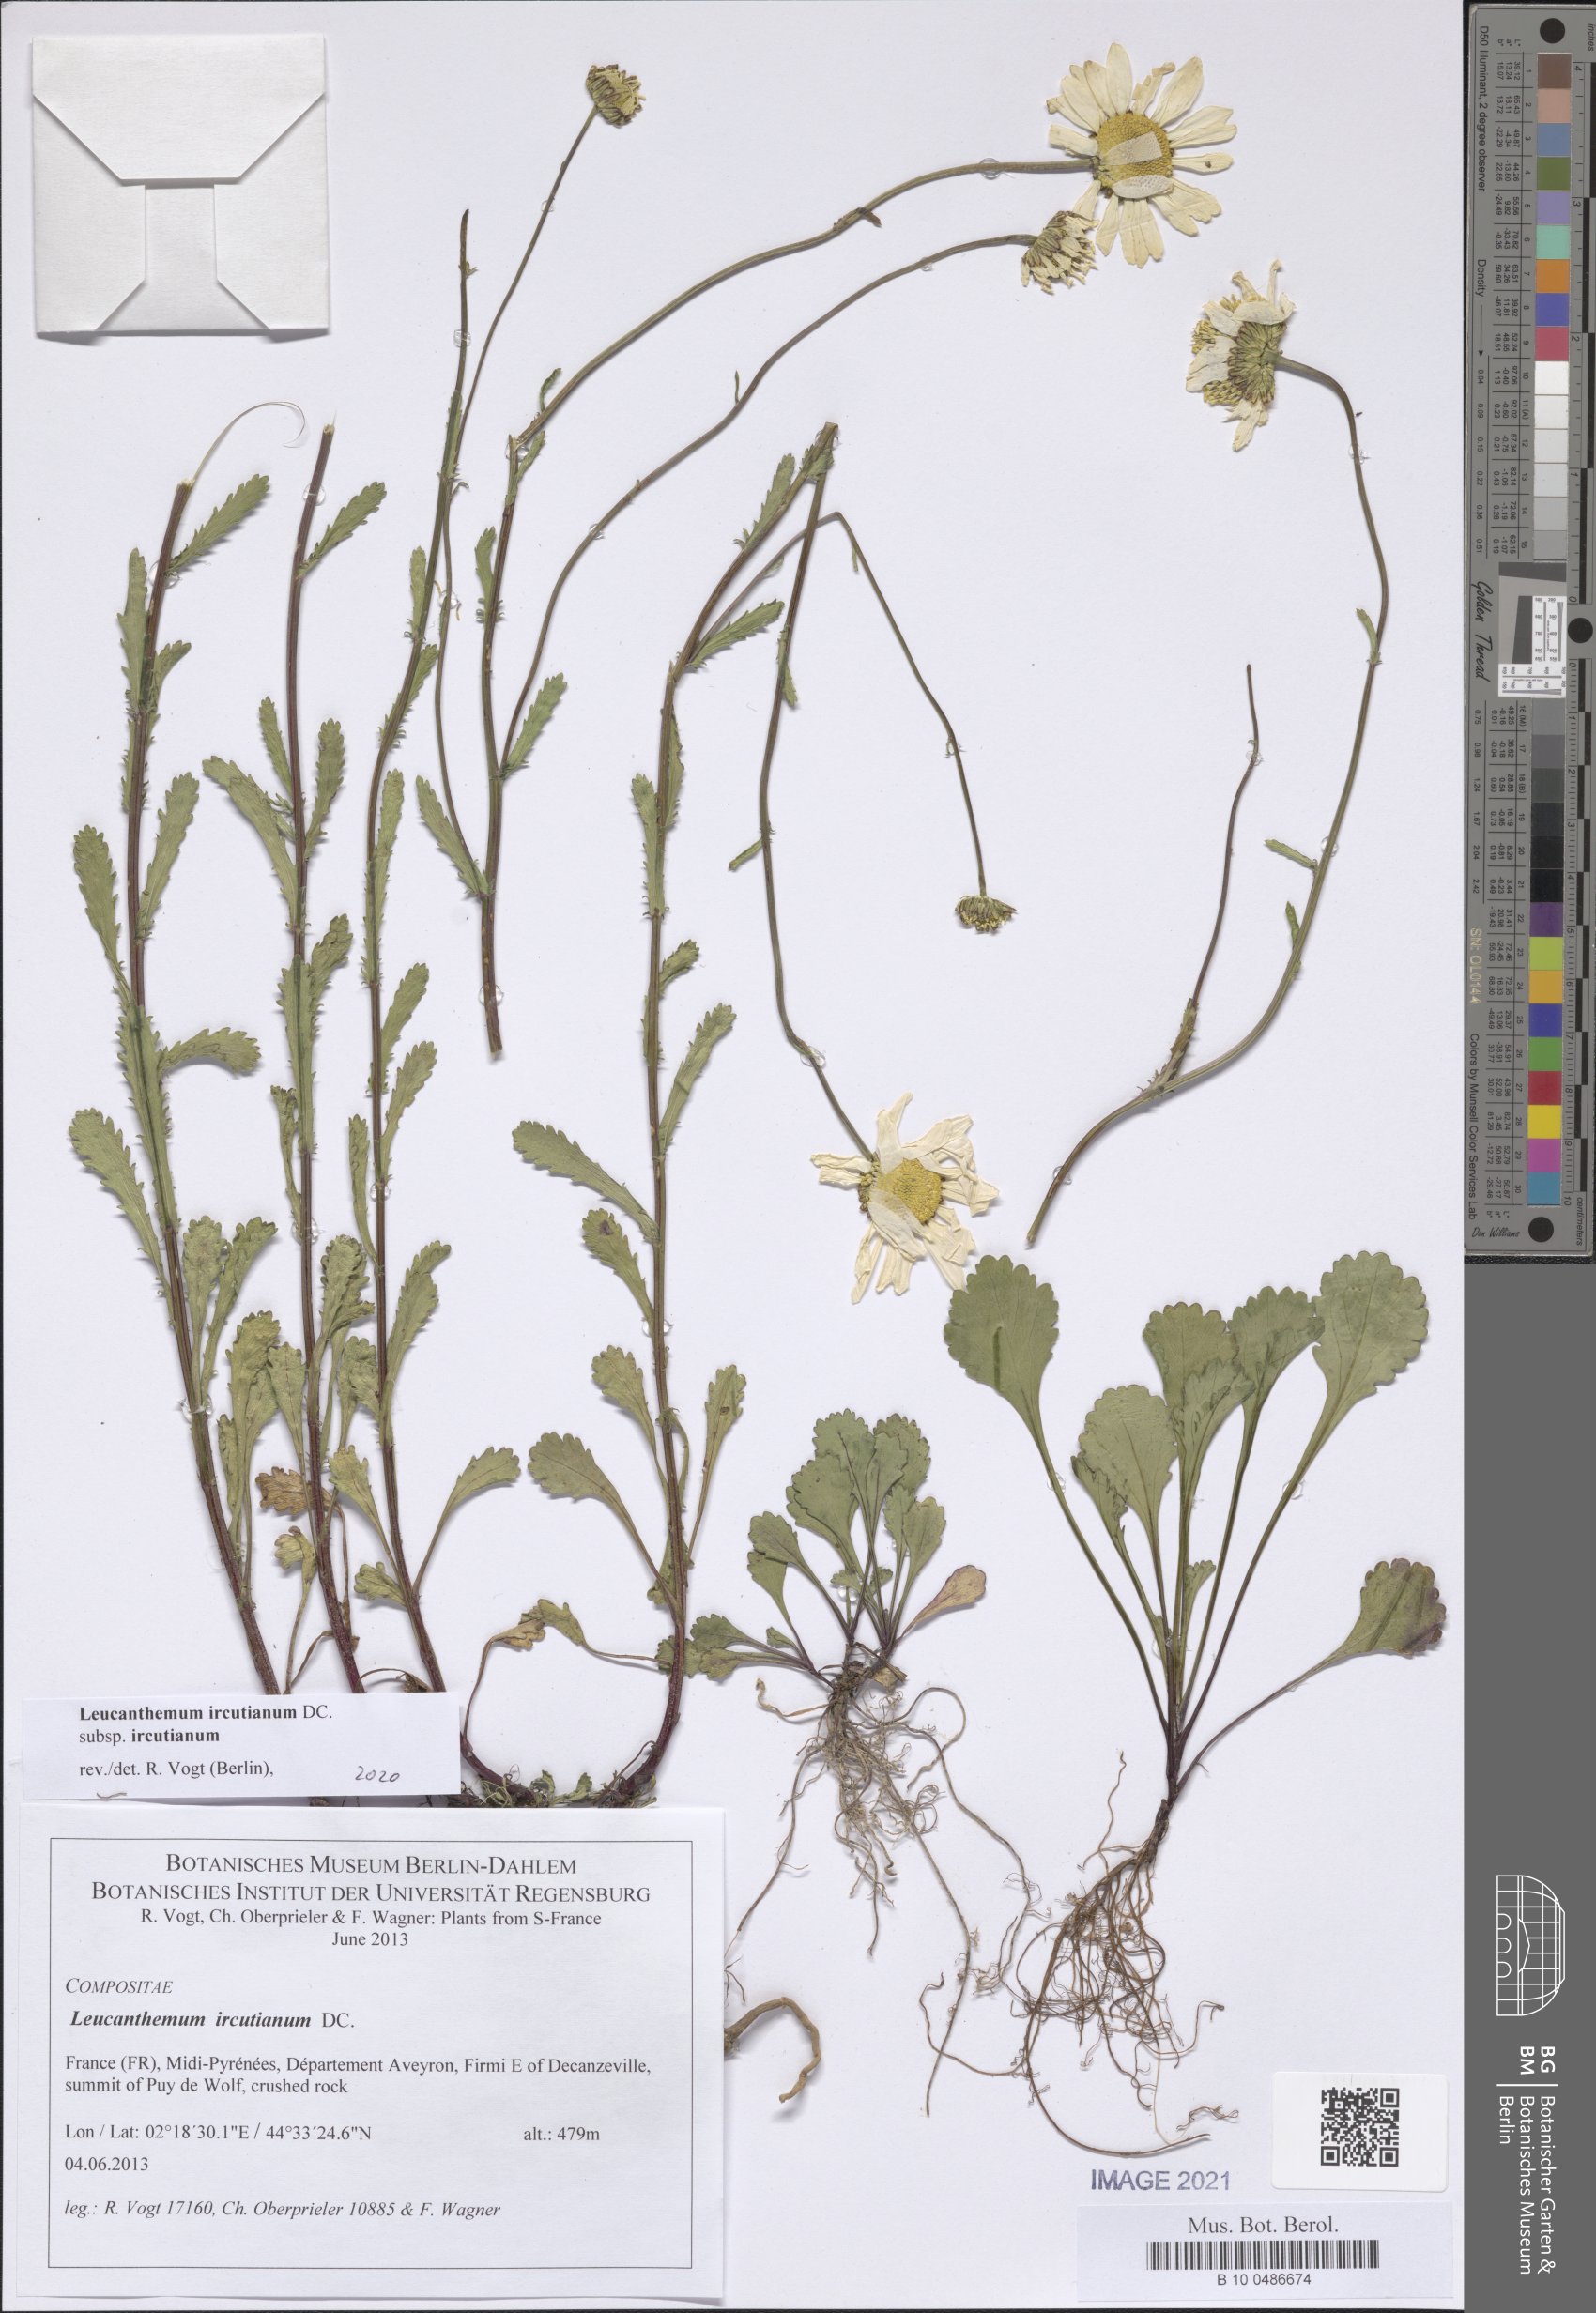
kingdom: Plantae
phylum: Tracheophyta
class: Magnoliopsida
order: Asterales
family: Asteraceae
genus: Leucanthemum
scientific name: Leucanthemum ircutianum
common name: Daisy
